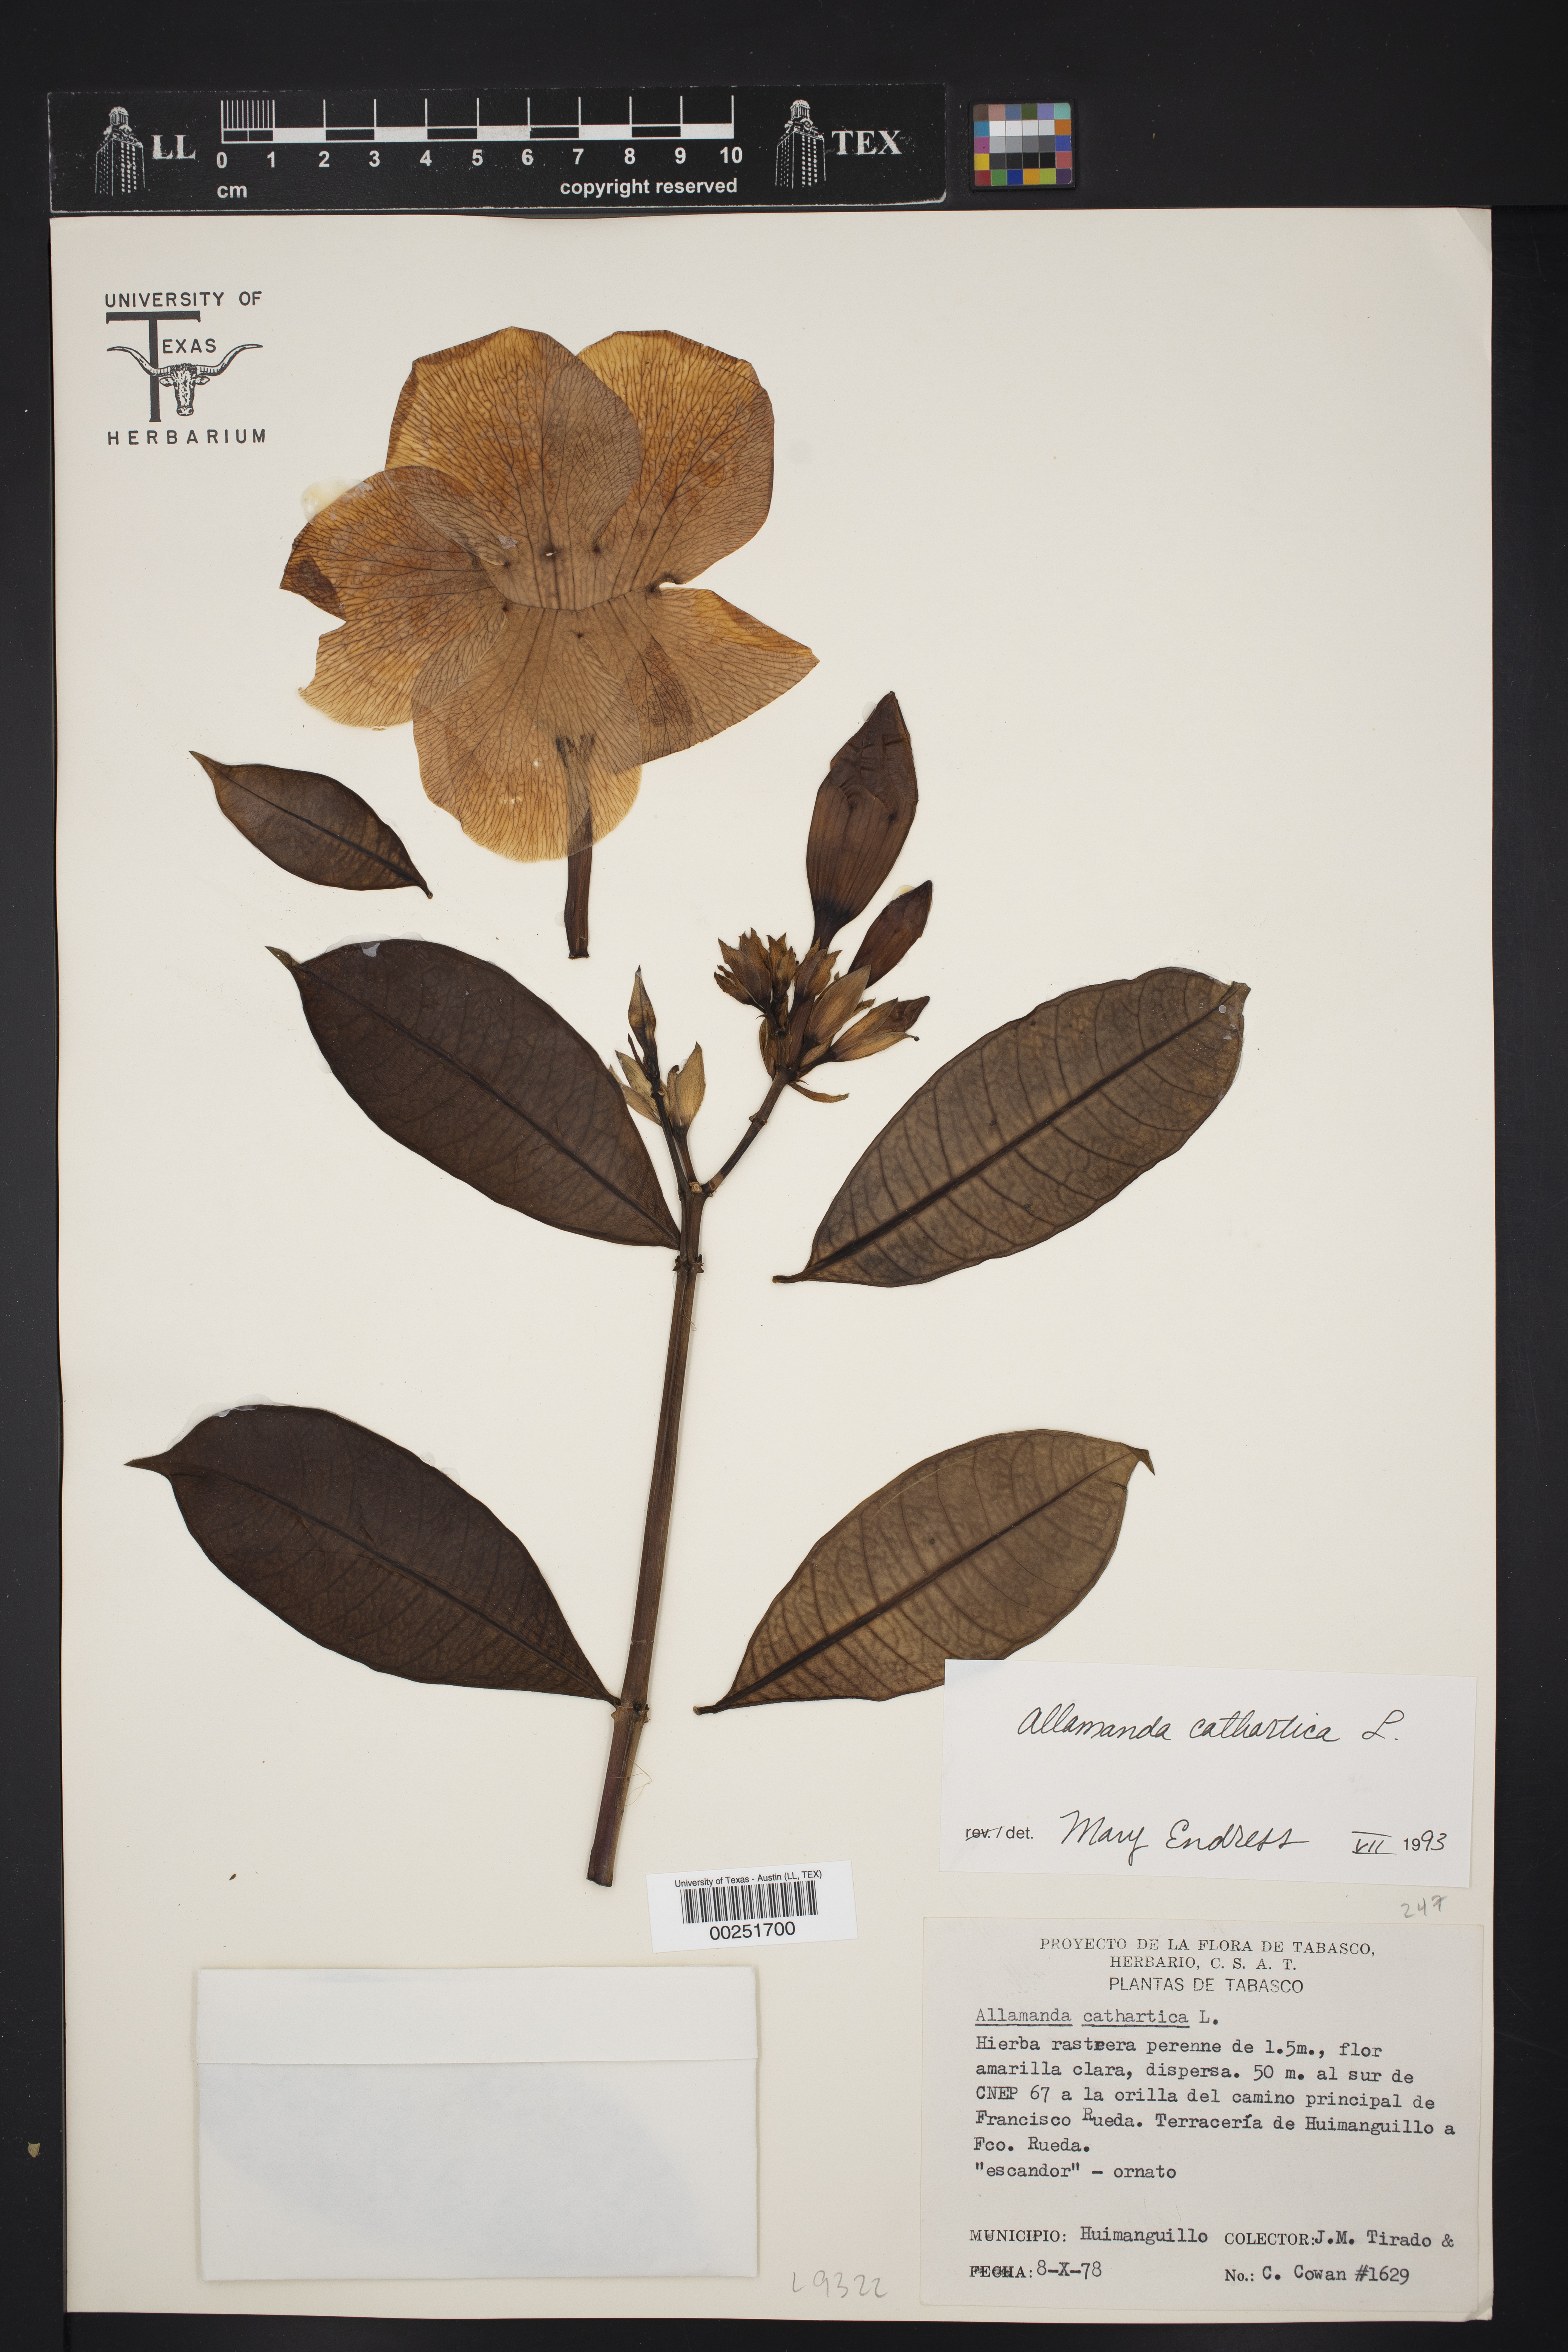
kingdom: Plantae
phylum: Tracheophyta
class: Magnoliopsida
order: Gentianales
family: Apocynaceae
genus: Allamanda
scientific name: Allamanda cathartica
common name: Golden trumpet
